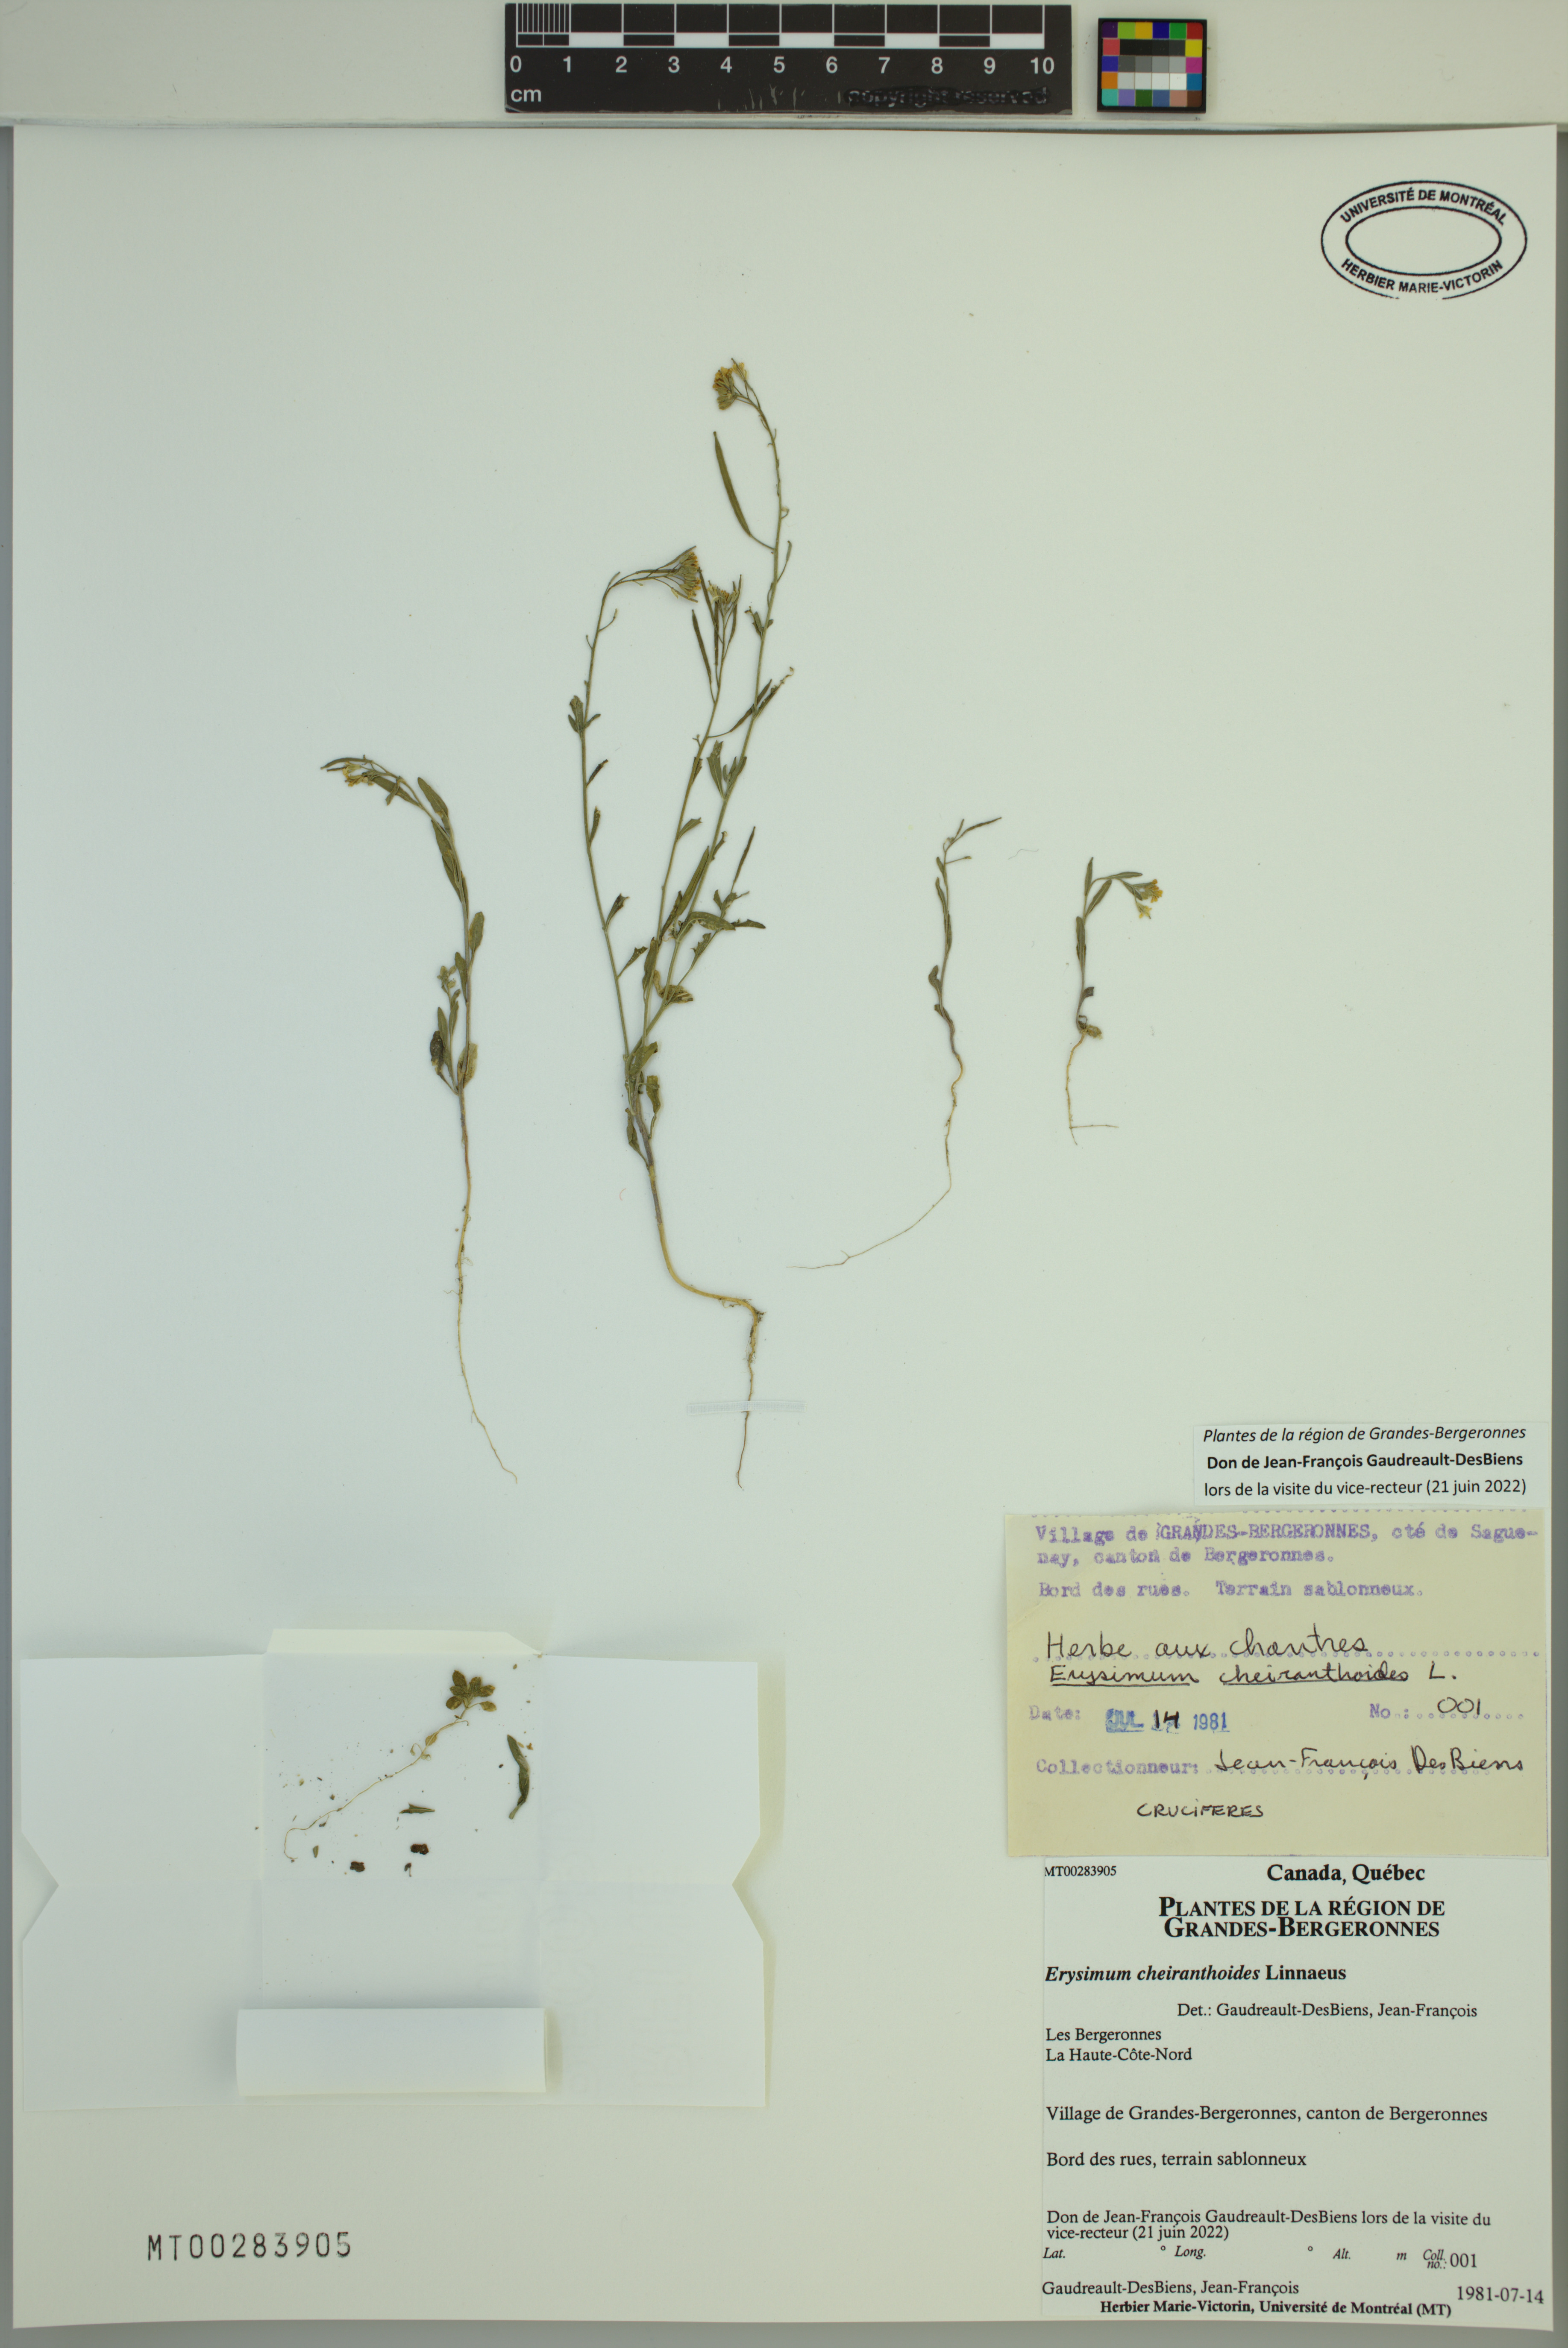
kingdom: Plantae
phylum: Tracheophyta
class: Magnoliopsida
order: Brassicales
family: Brassicaceae
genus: Erysimum
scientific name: Erysimum cheiranthoides
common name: Treacle mustard
